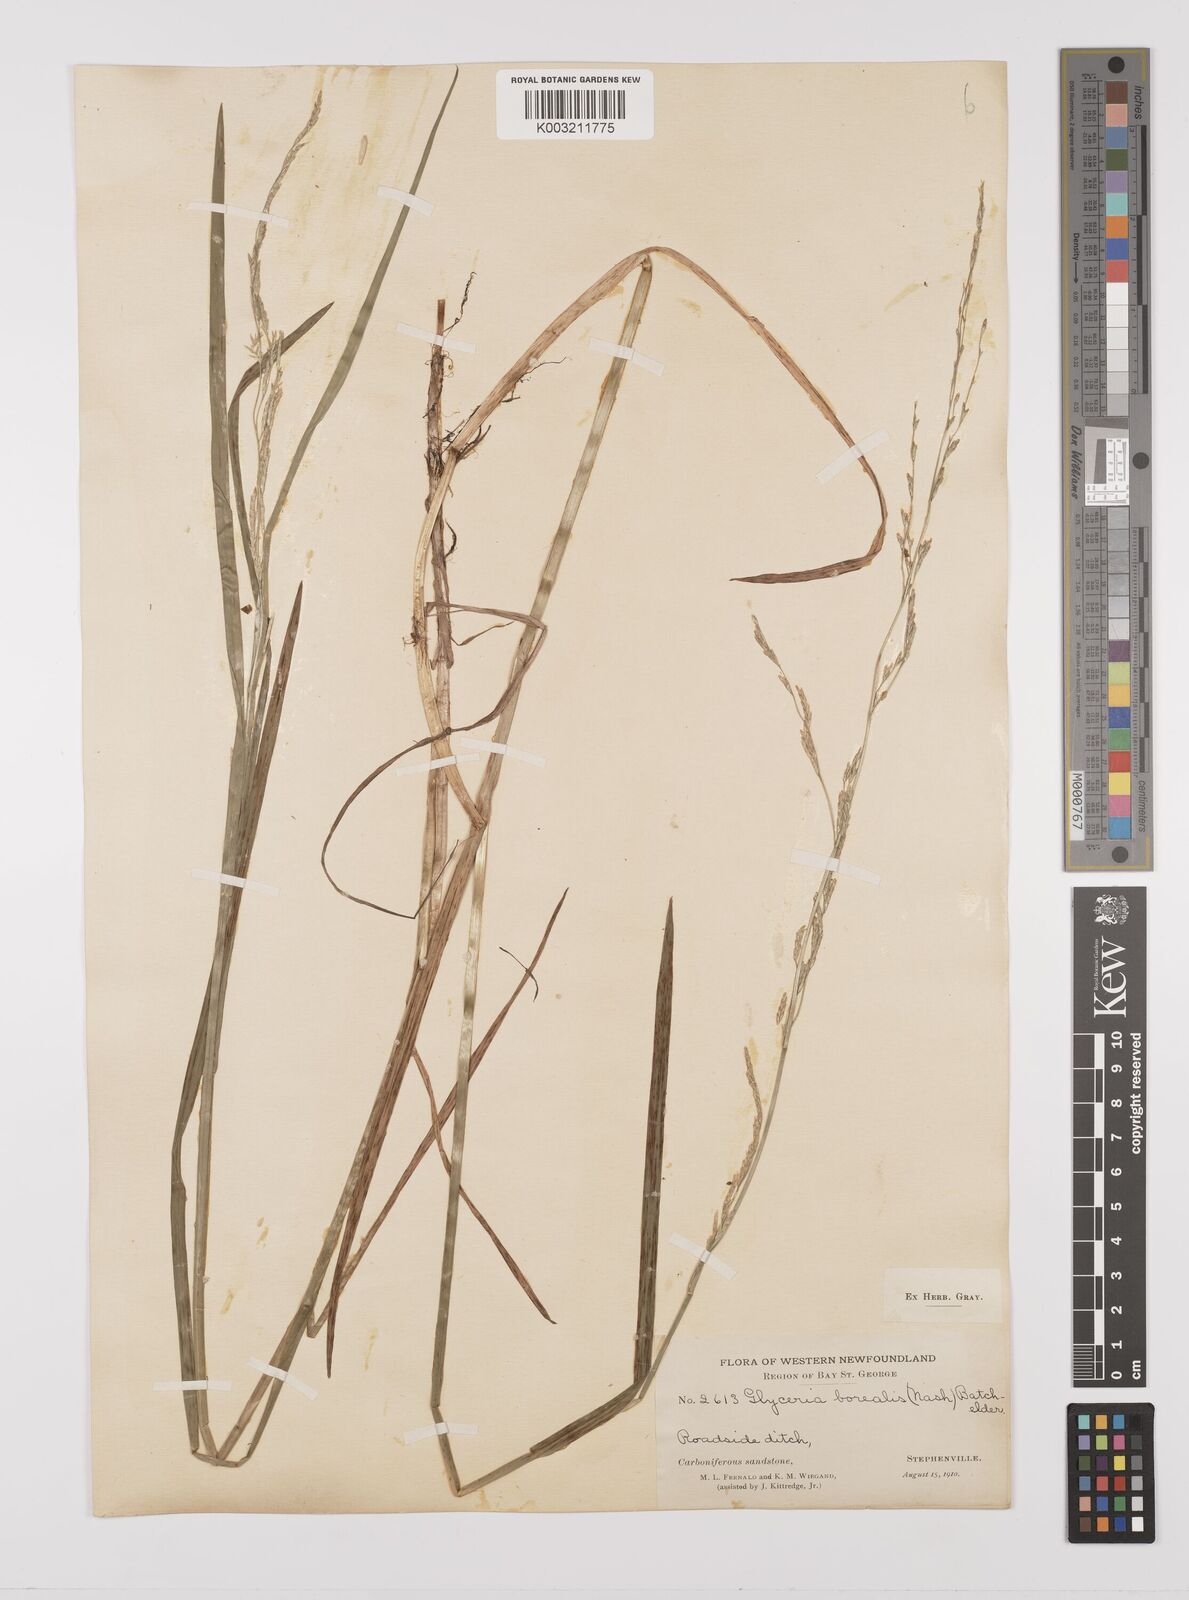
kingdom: Plantae
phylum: Tracheophyta
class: Liliopsida
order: Poales
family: Poaceae
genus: Glyceria
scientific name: Glyceria borealis
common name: Boreal glyceria
